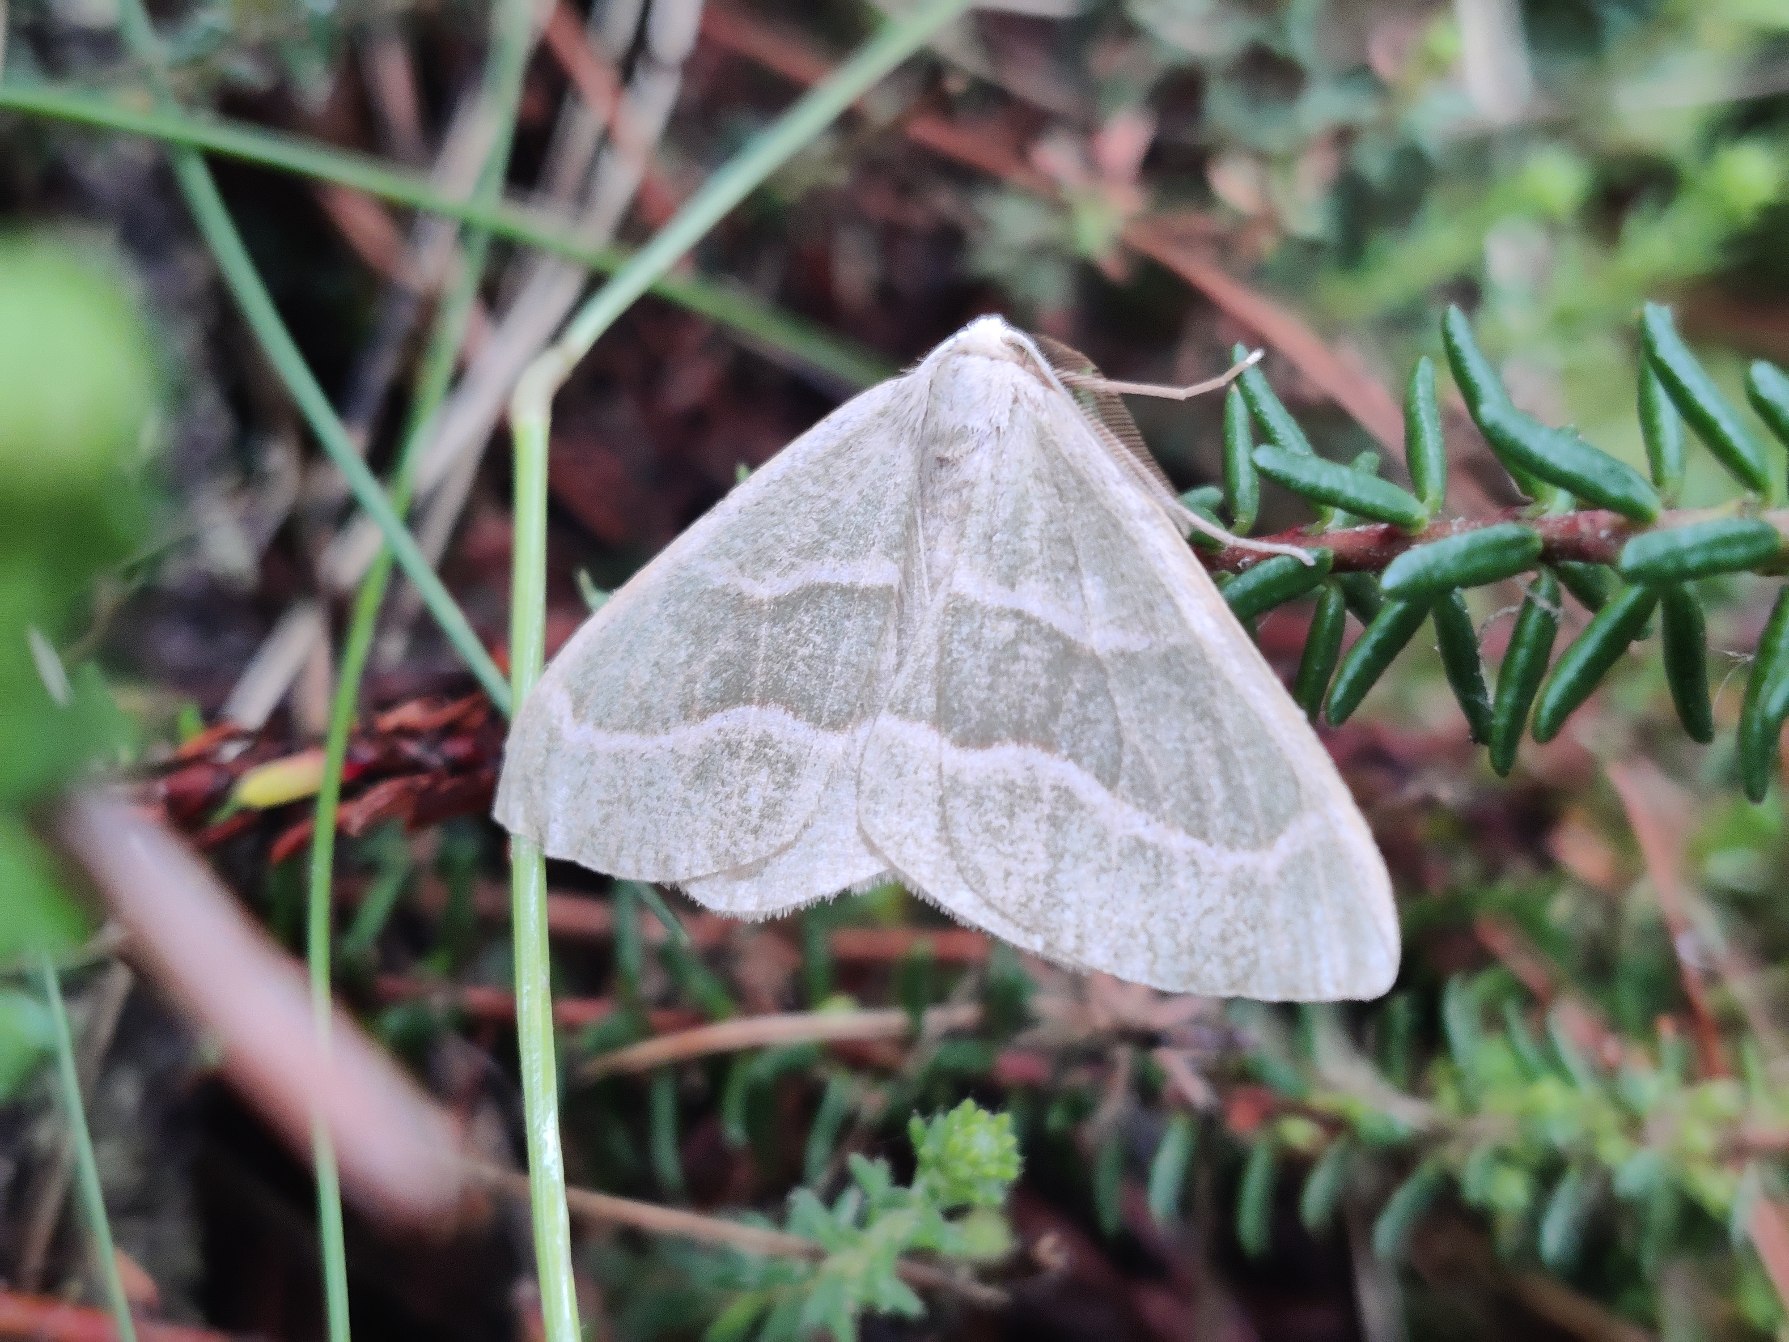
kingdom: Animalia
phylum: Arthropoda
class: Insecta
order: Lepidoptera
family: Geometridae
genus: Hylaea
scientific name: Hylaea fasciaria
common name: Nåleskovs-måler
